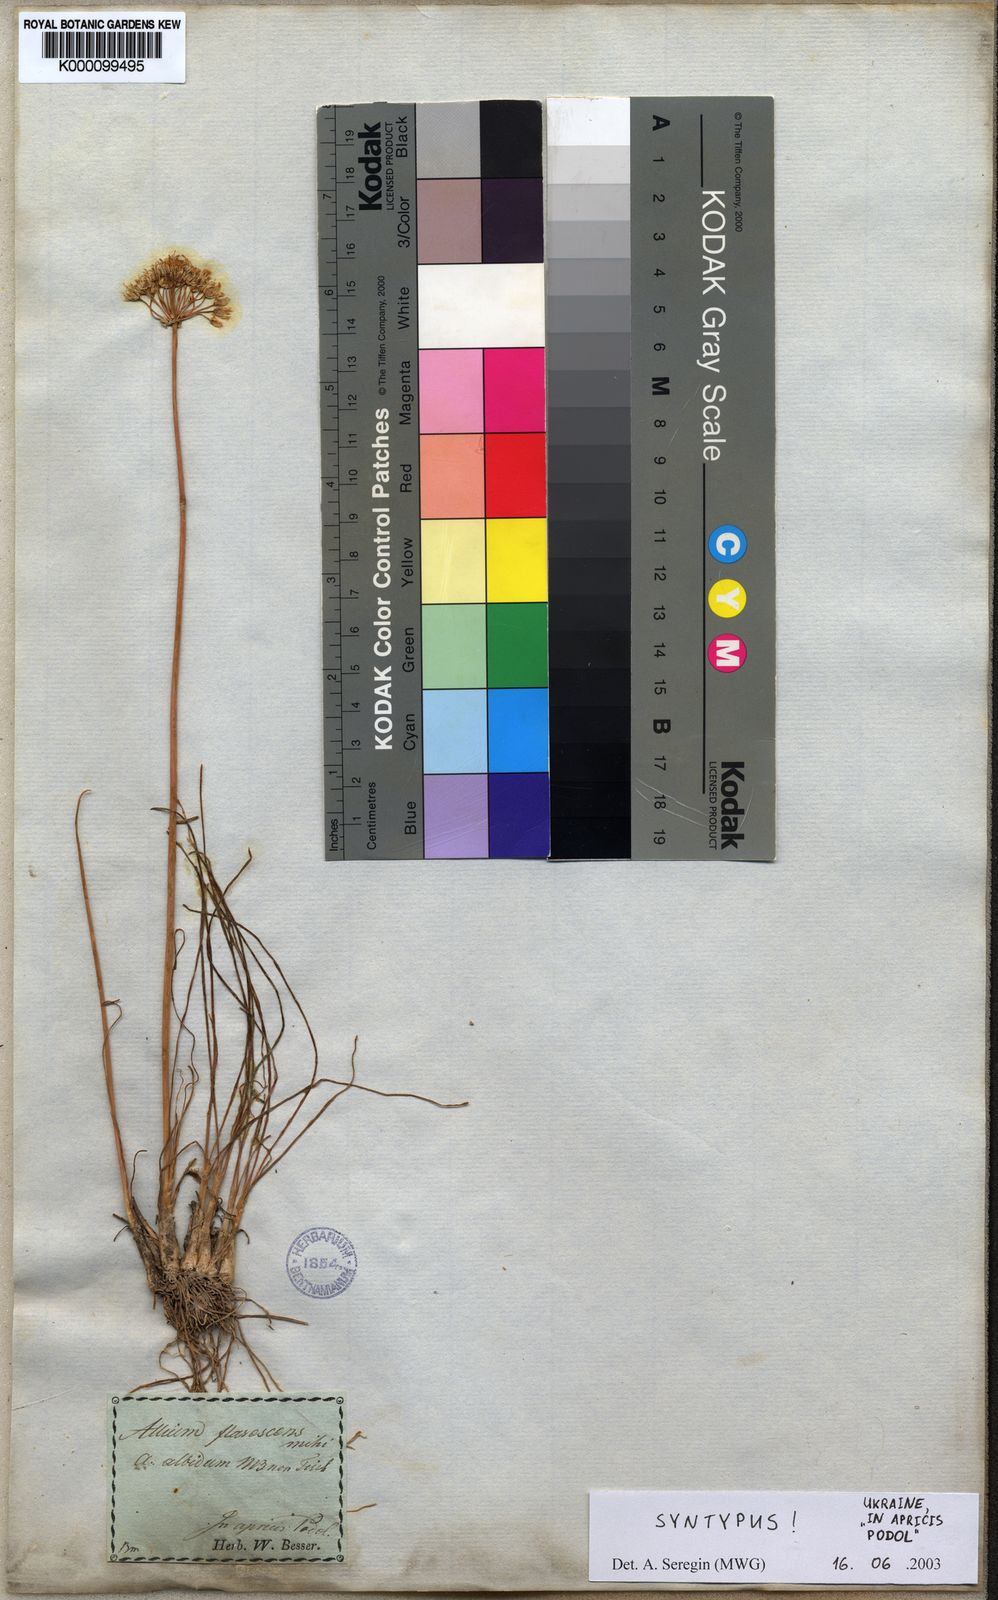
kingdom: Plantae
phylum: Tracheophyta
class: Liliopsida
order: Asparagales
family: Amaryllidaceae
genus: Allium
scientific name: Allium flavescens
